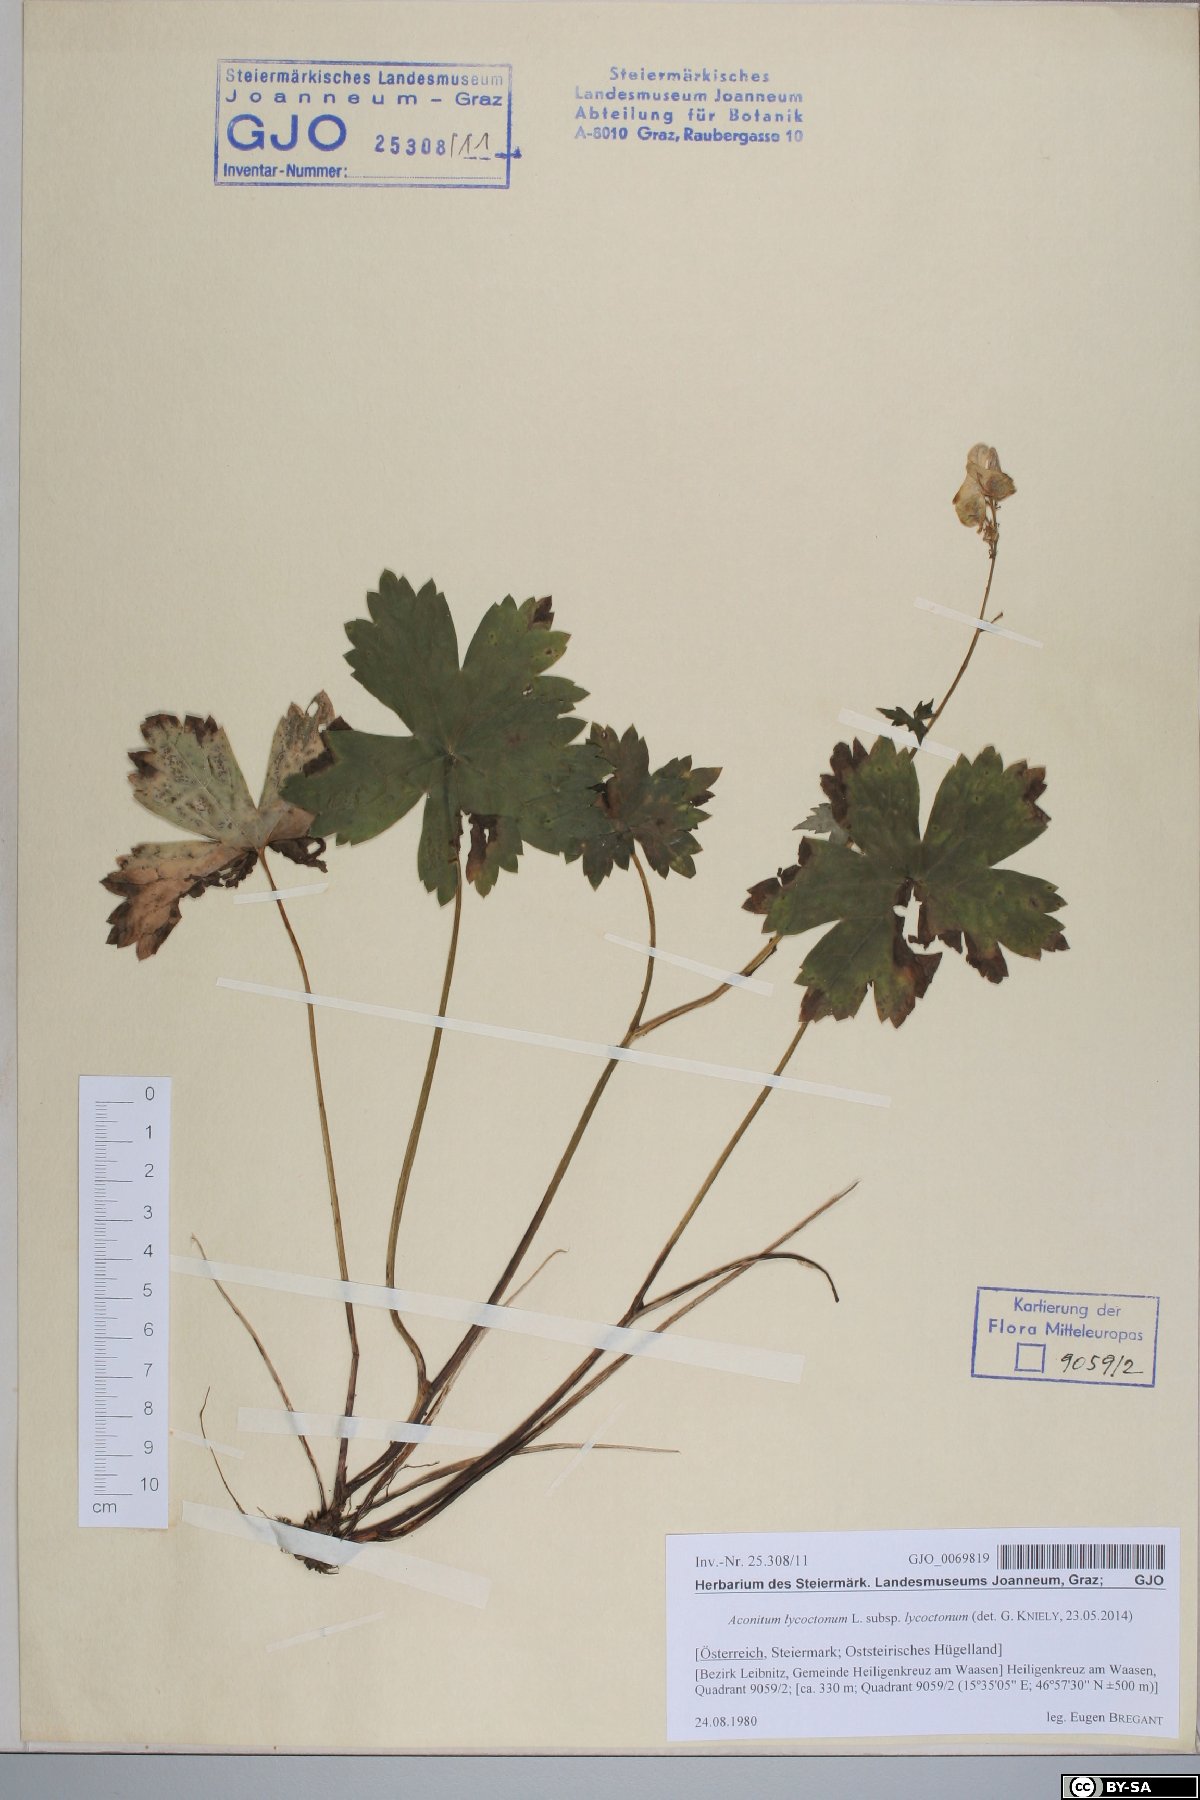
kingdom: Plantae
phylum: Tracheophyta
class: Magnoliopsida
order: Ranunculales
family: Ranunculaceae
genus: Aconitum
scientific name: Aconitum lycoctonum
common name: Wolf's-bane
